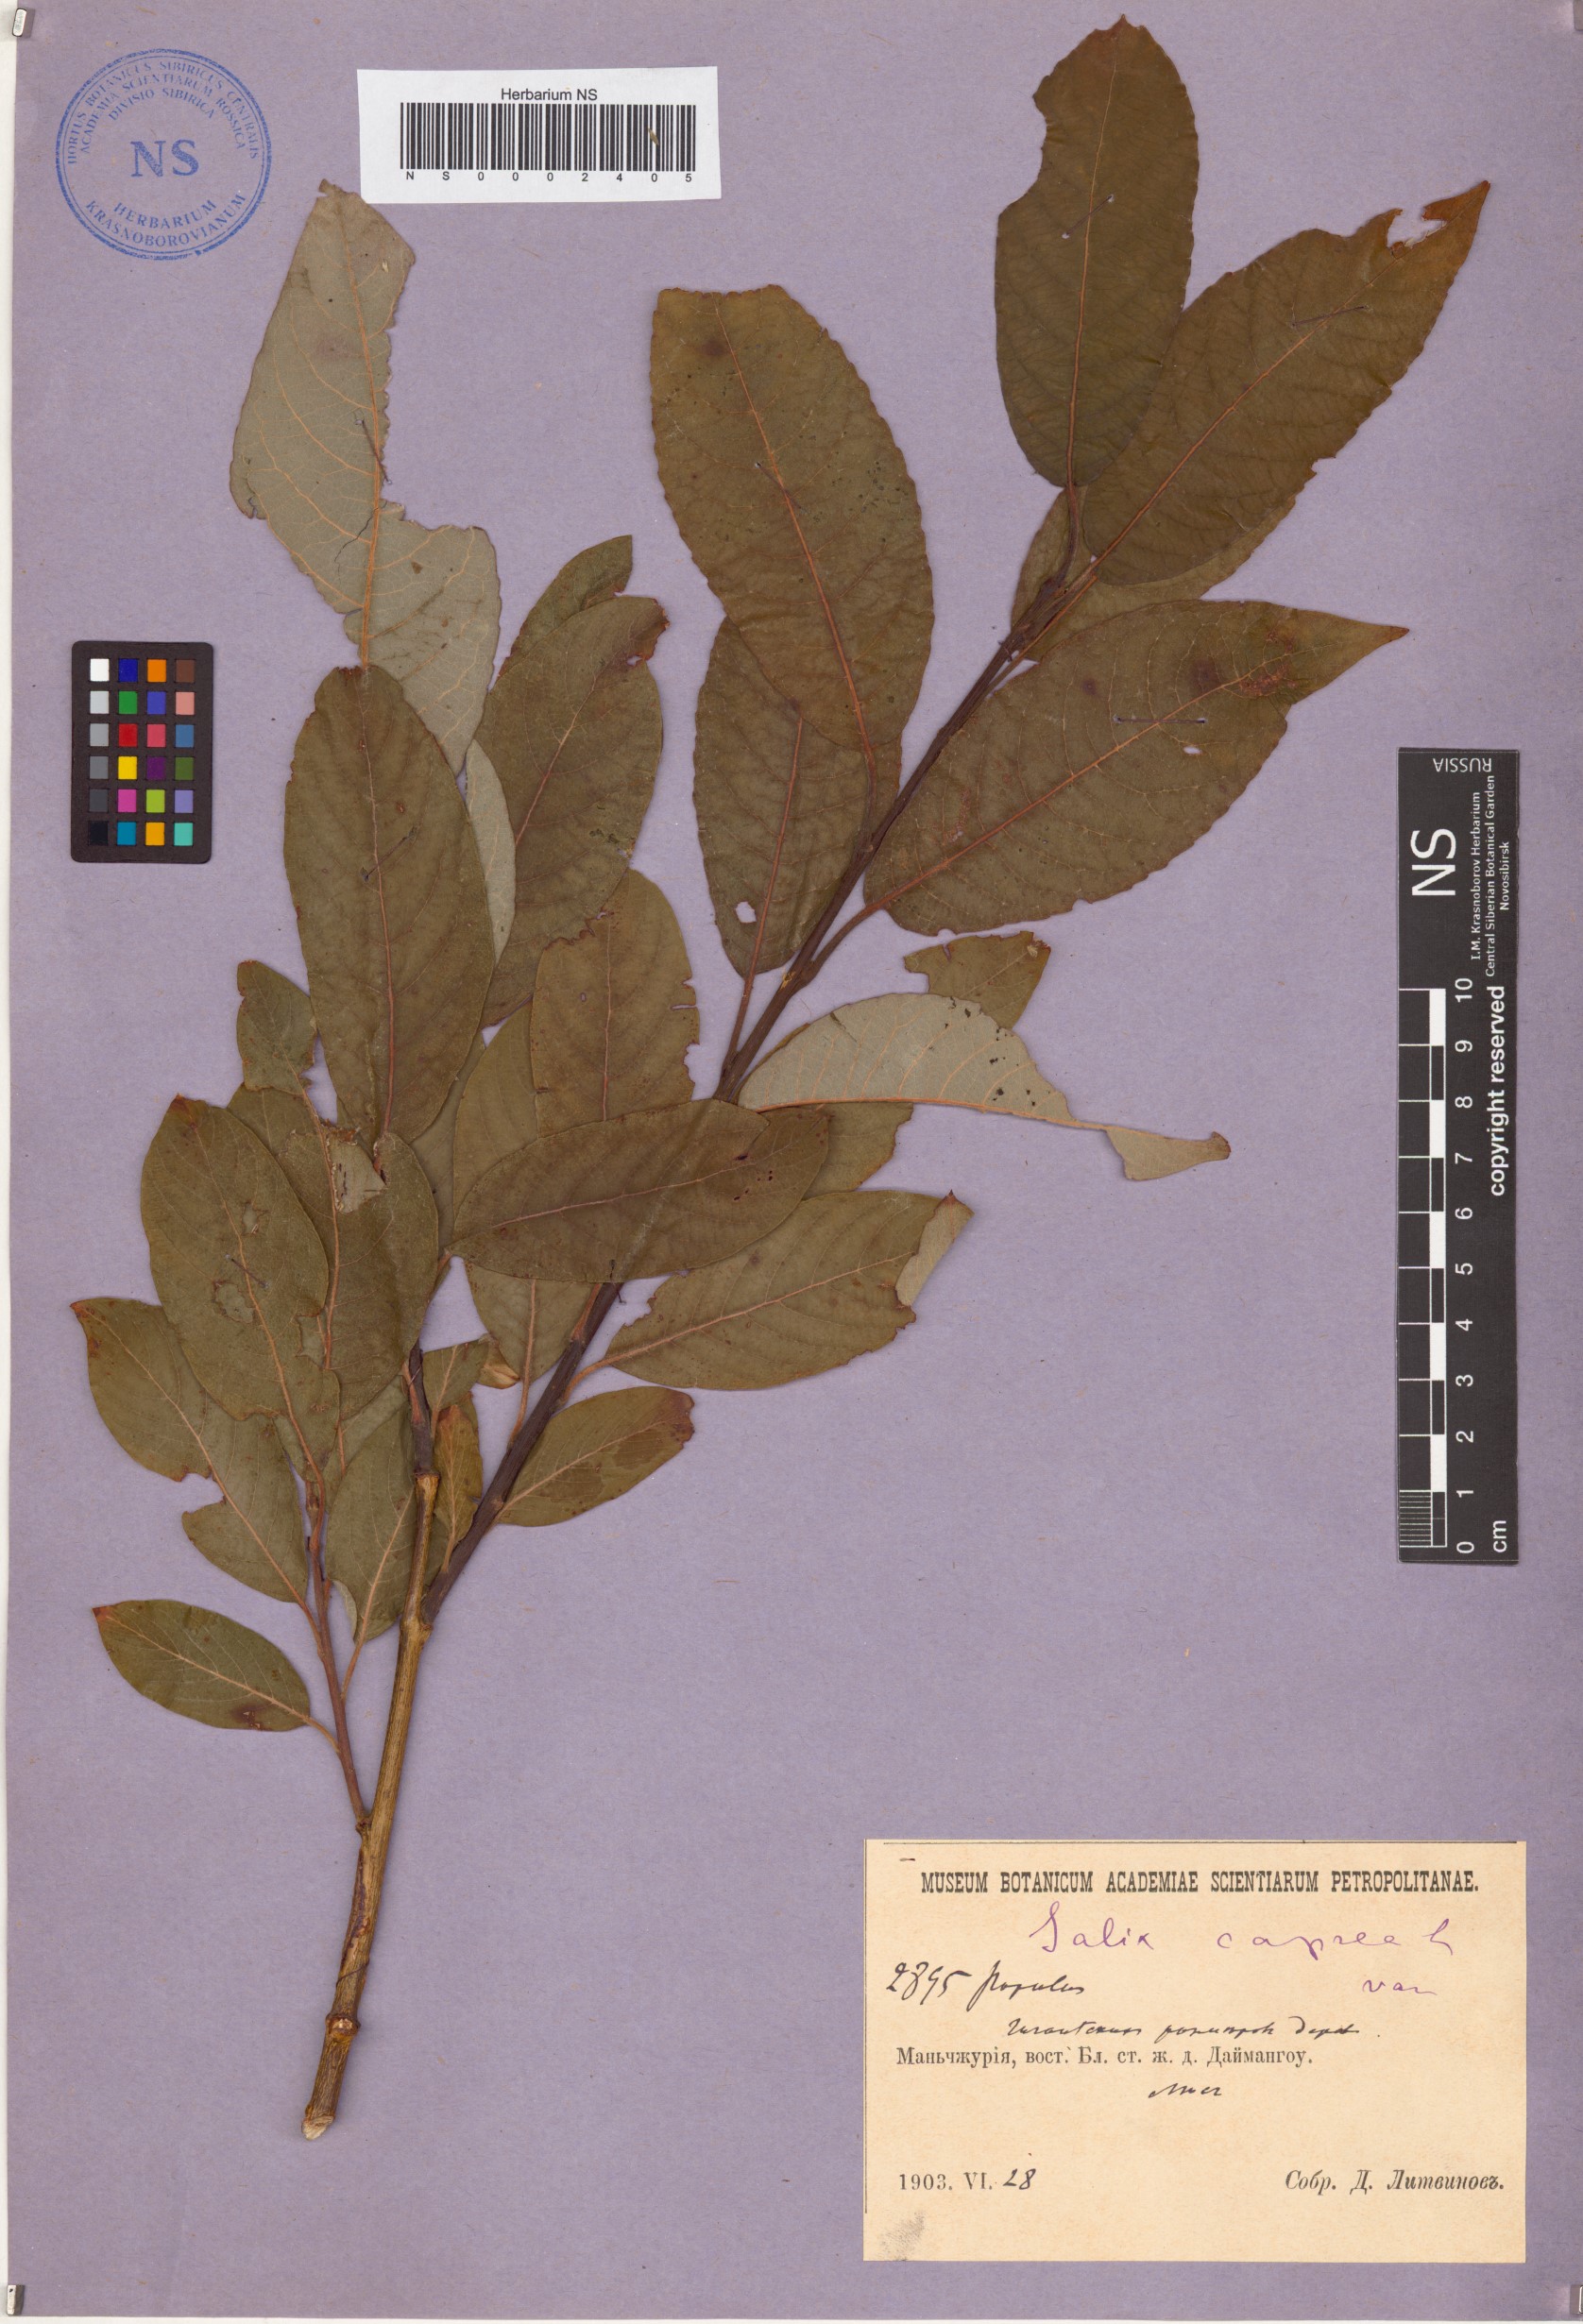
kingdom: Plantae
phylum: Tracheophyta
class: Magnoliopsida
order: Malpighiales
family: Salicaceae
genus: Salix
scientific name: Salix caprea
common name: Goat willow
